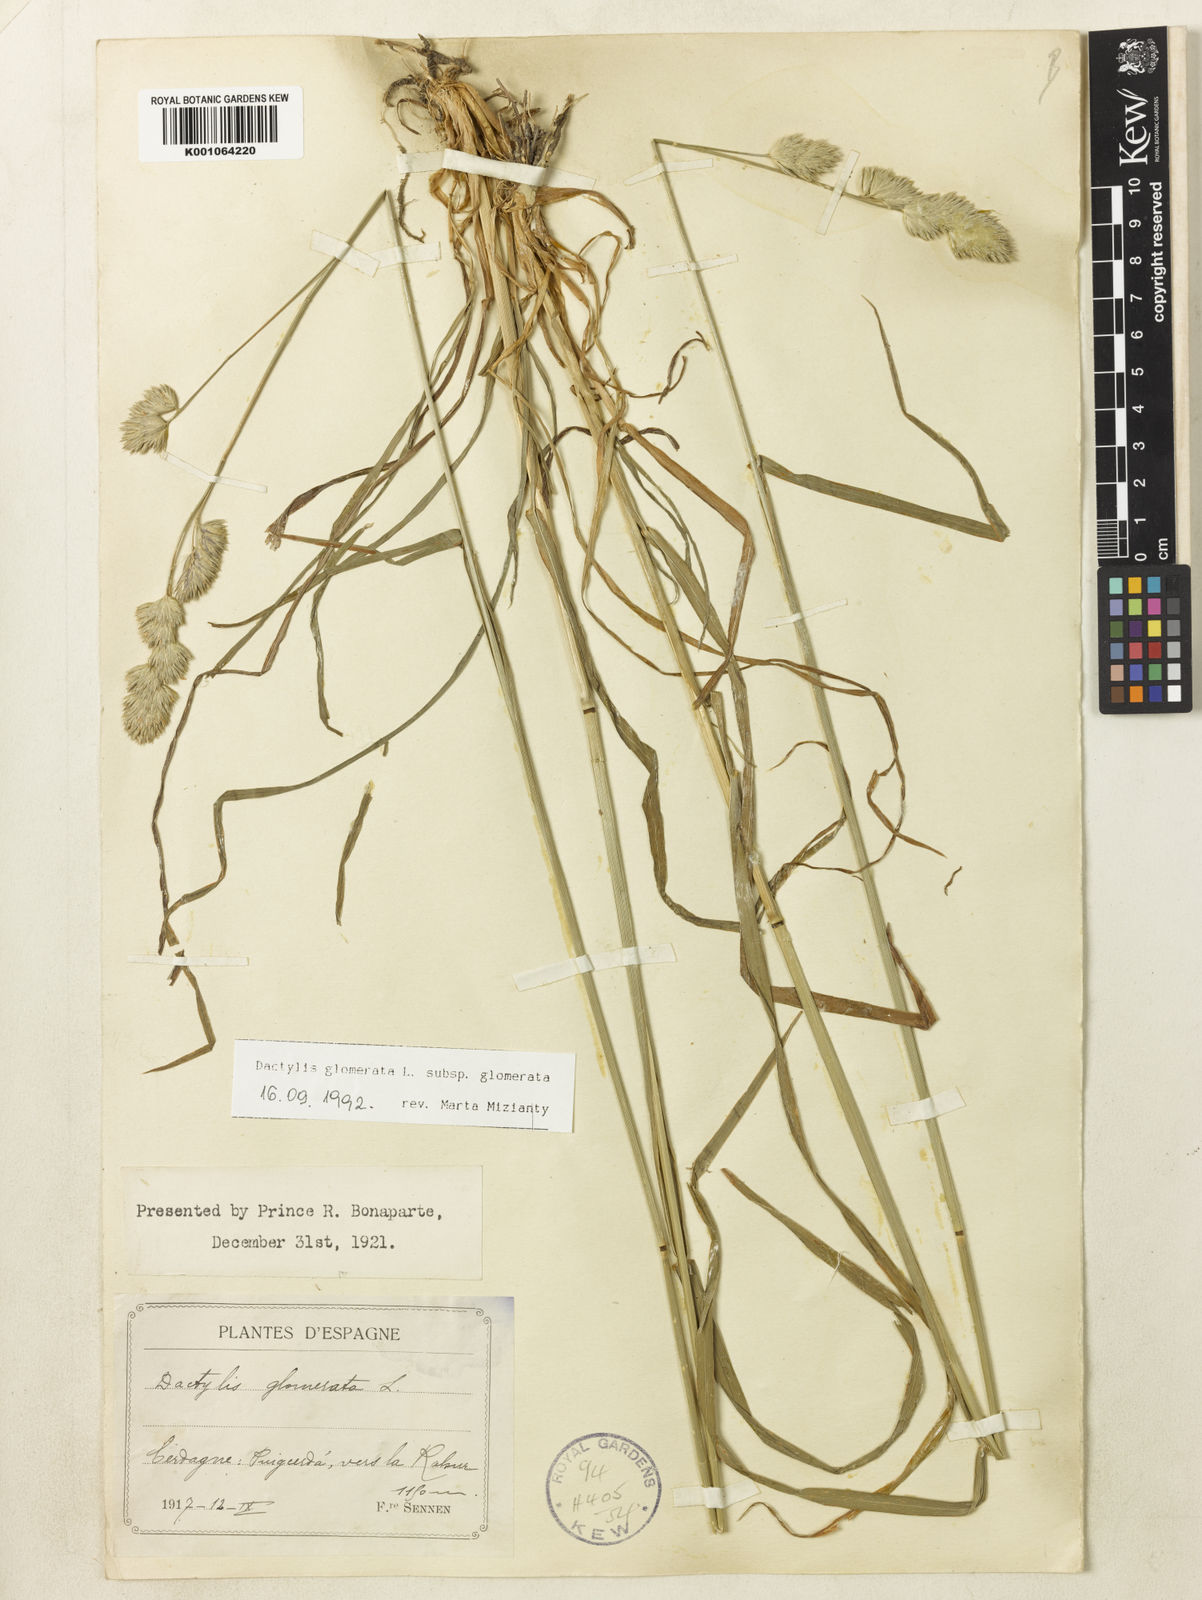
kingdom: Plantae
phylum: Tracheophyta
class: Liliopsida
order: Poales
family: Poaceae
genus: Dactylis
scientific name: Dactylis glomerata
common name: Orchardgrass
